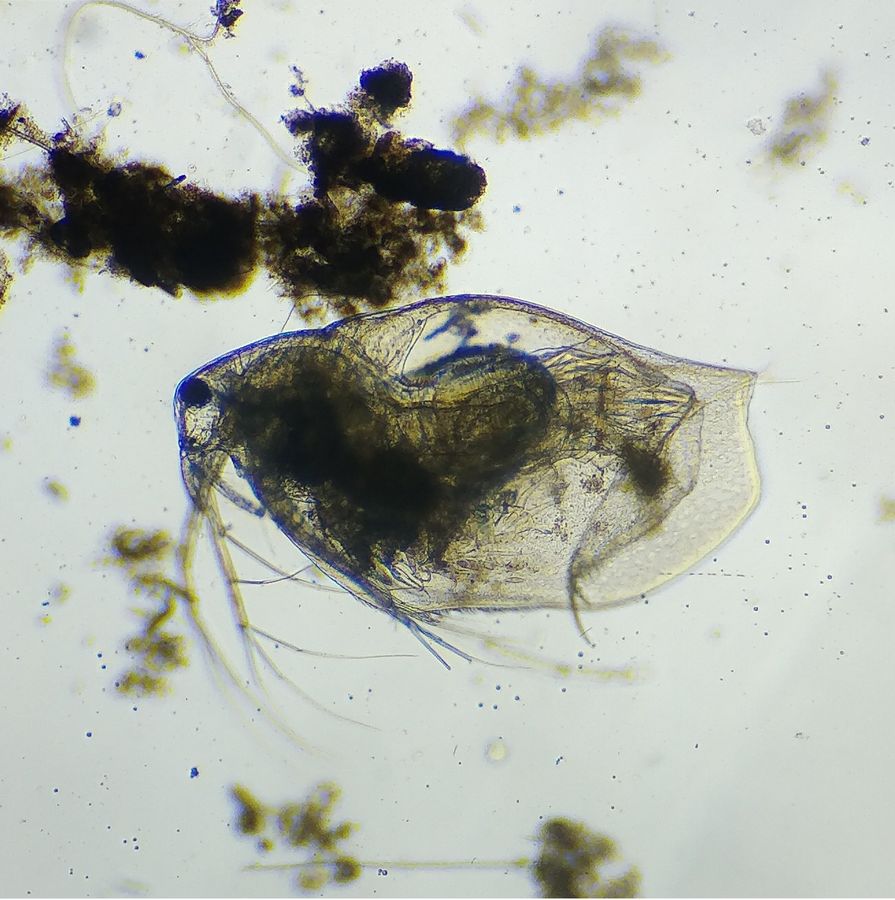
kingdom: Animalia
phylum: Arthropoda
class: Branchiopoda
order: Diplostraca
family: Ophryoxidae
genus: Ophryoxus
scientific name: Ophryoxus gracilis
